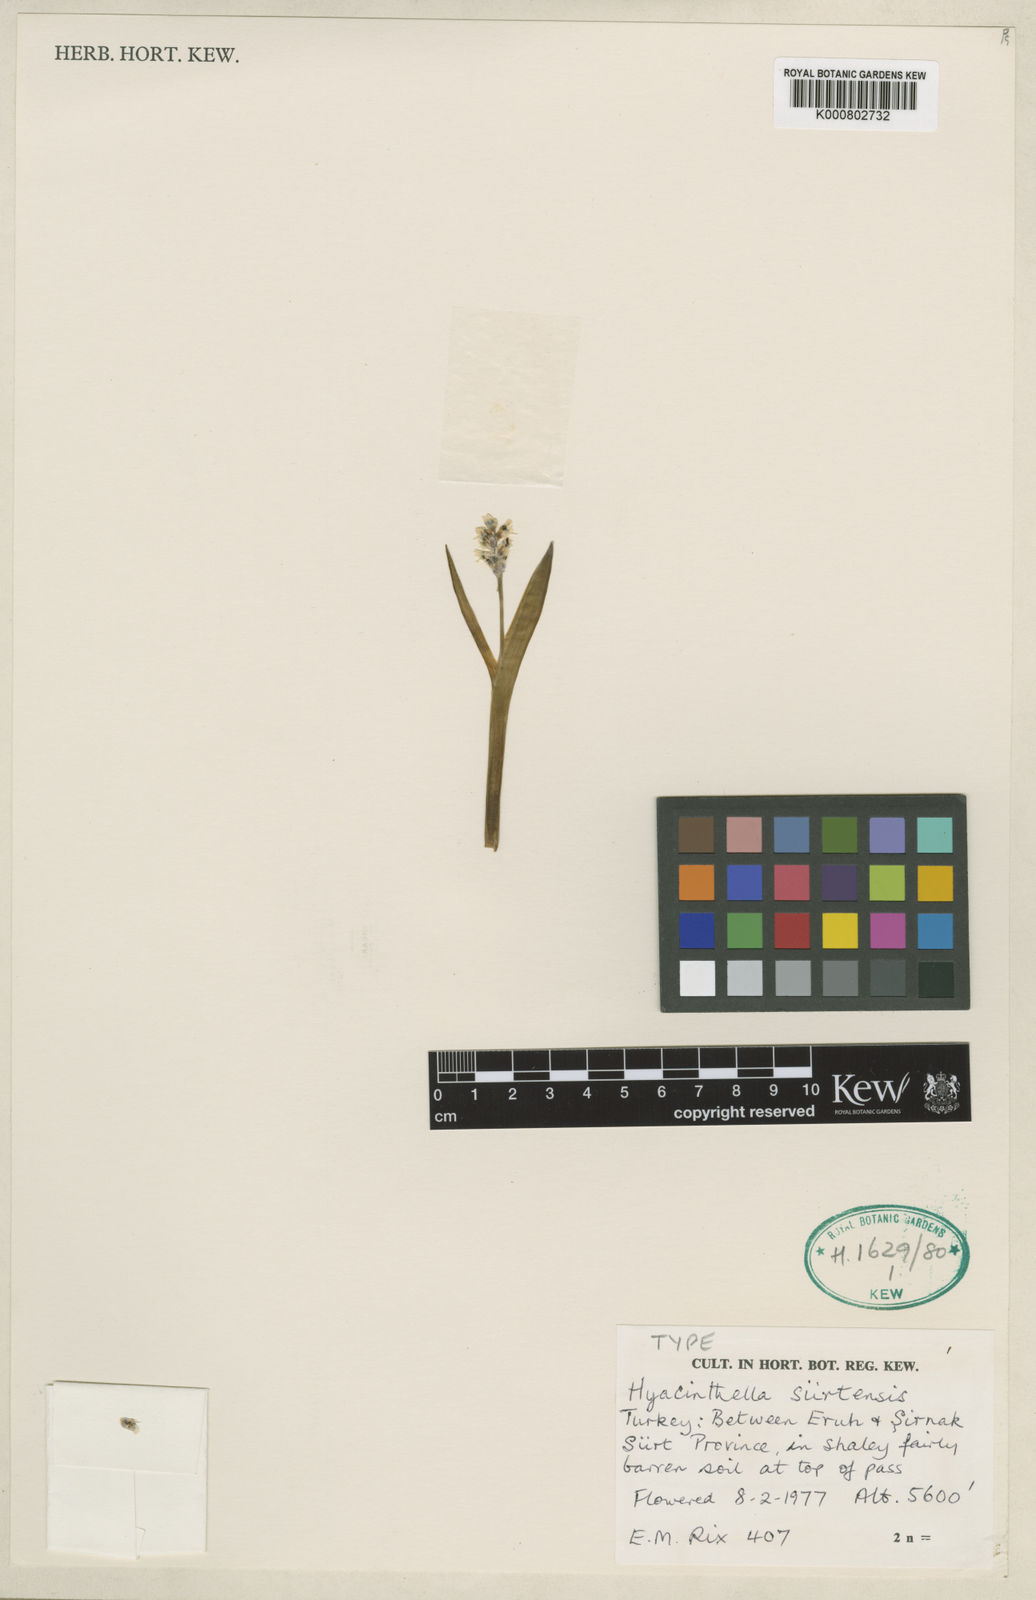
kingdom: Plantae
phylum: Tracheophyta
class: Liliopsida
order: Asparagales
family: Asparagaceae
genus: Hyacinthus
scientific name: Hyacinthus
